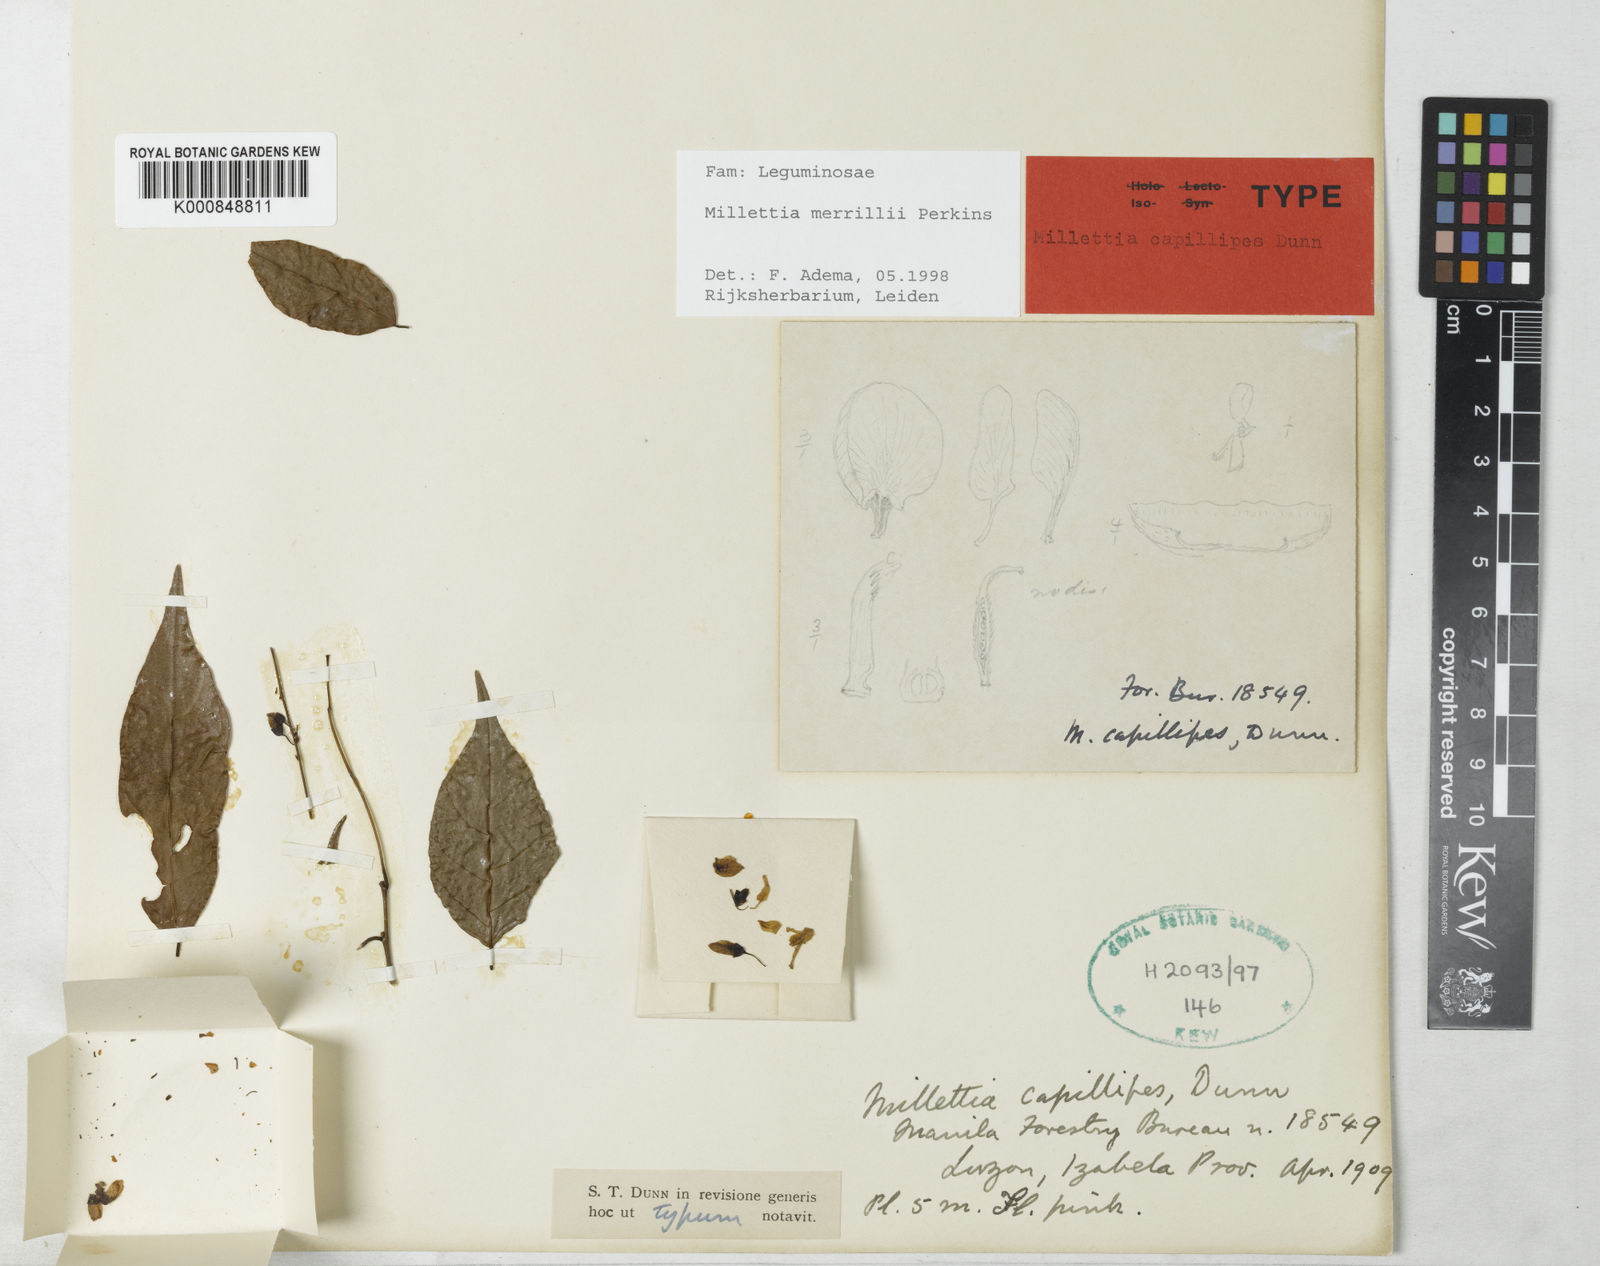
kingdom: Plantae
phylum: Tracheophyta
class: Magnoliopsida
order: Fabales
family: Fabaceae
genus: Millettia
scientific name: Millettia merrillii
